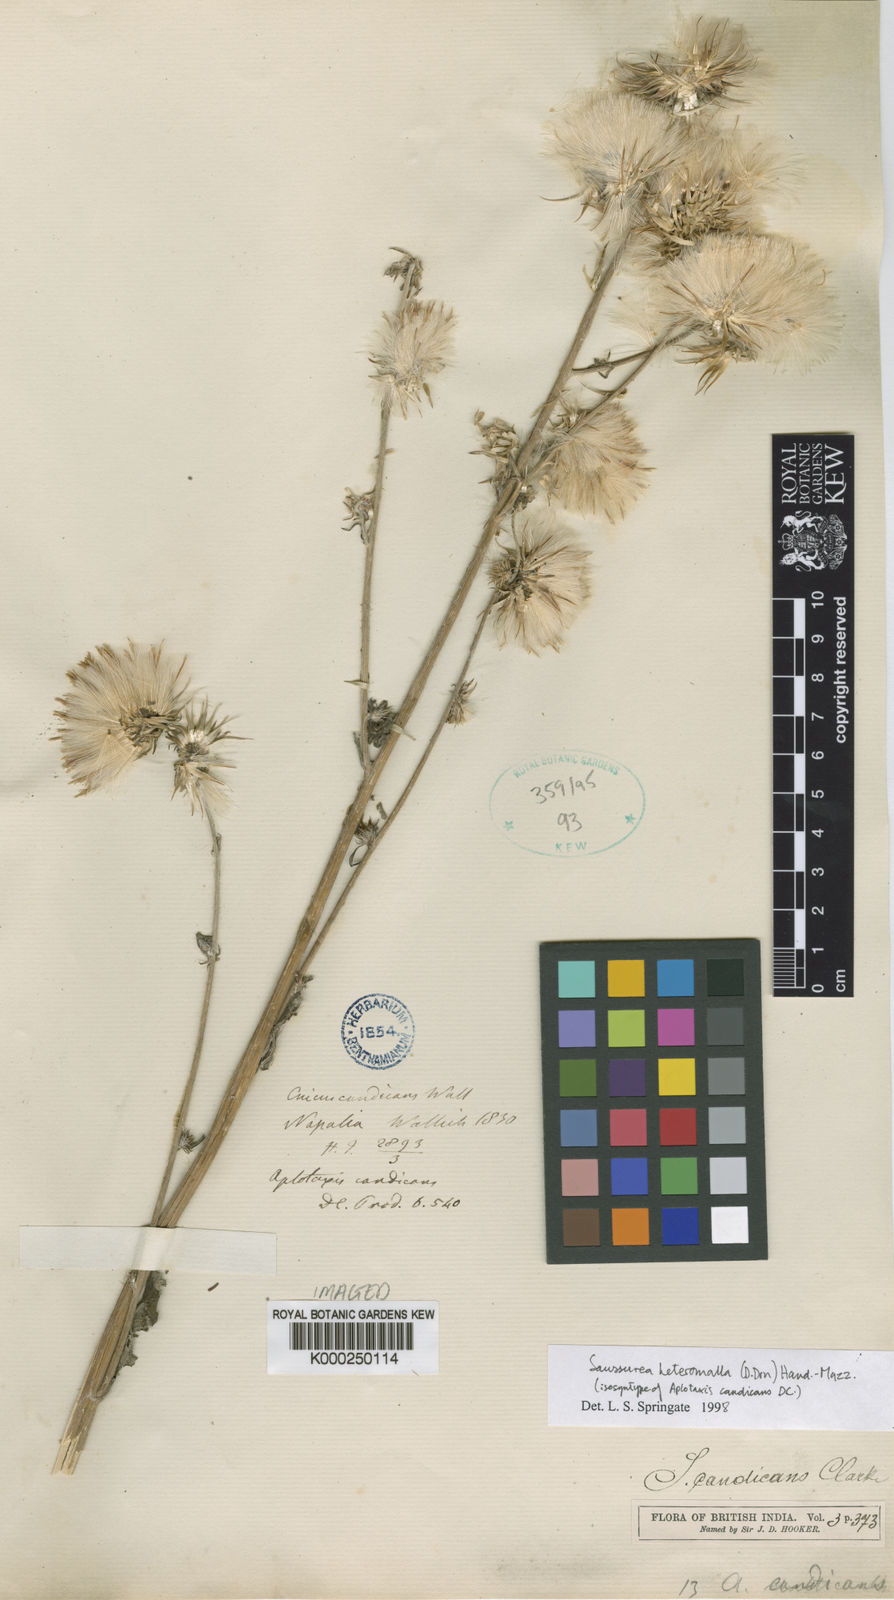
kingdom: Plantae
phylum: Tracheophyta
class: Magnoliopsida
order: Asterales
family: Asteraceae
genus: Jurinea
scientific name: Jurinea heteromalla
